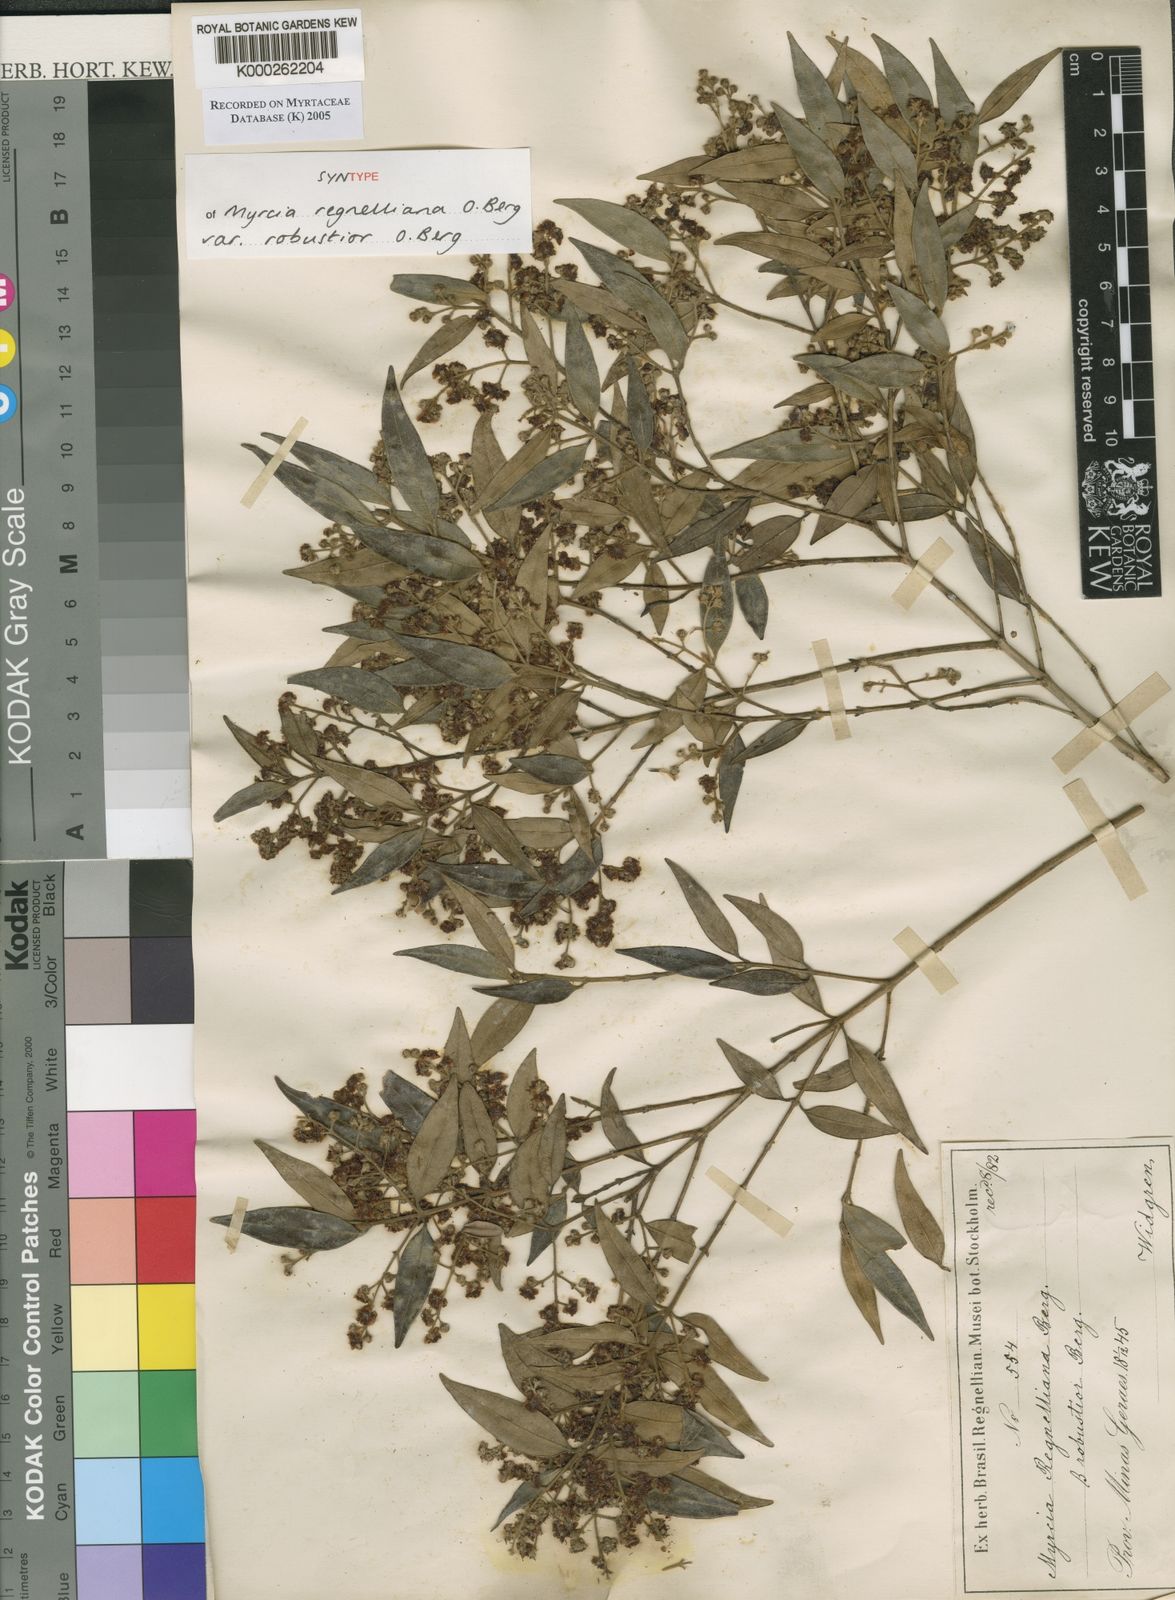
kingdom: Plantae
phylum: Tracheophyta
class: Magnoliopsida
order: Myrtales
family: Myrtaceae
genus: Myrcia
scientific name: Myrcia regnelliana
